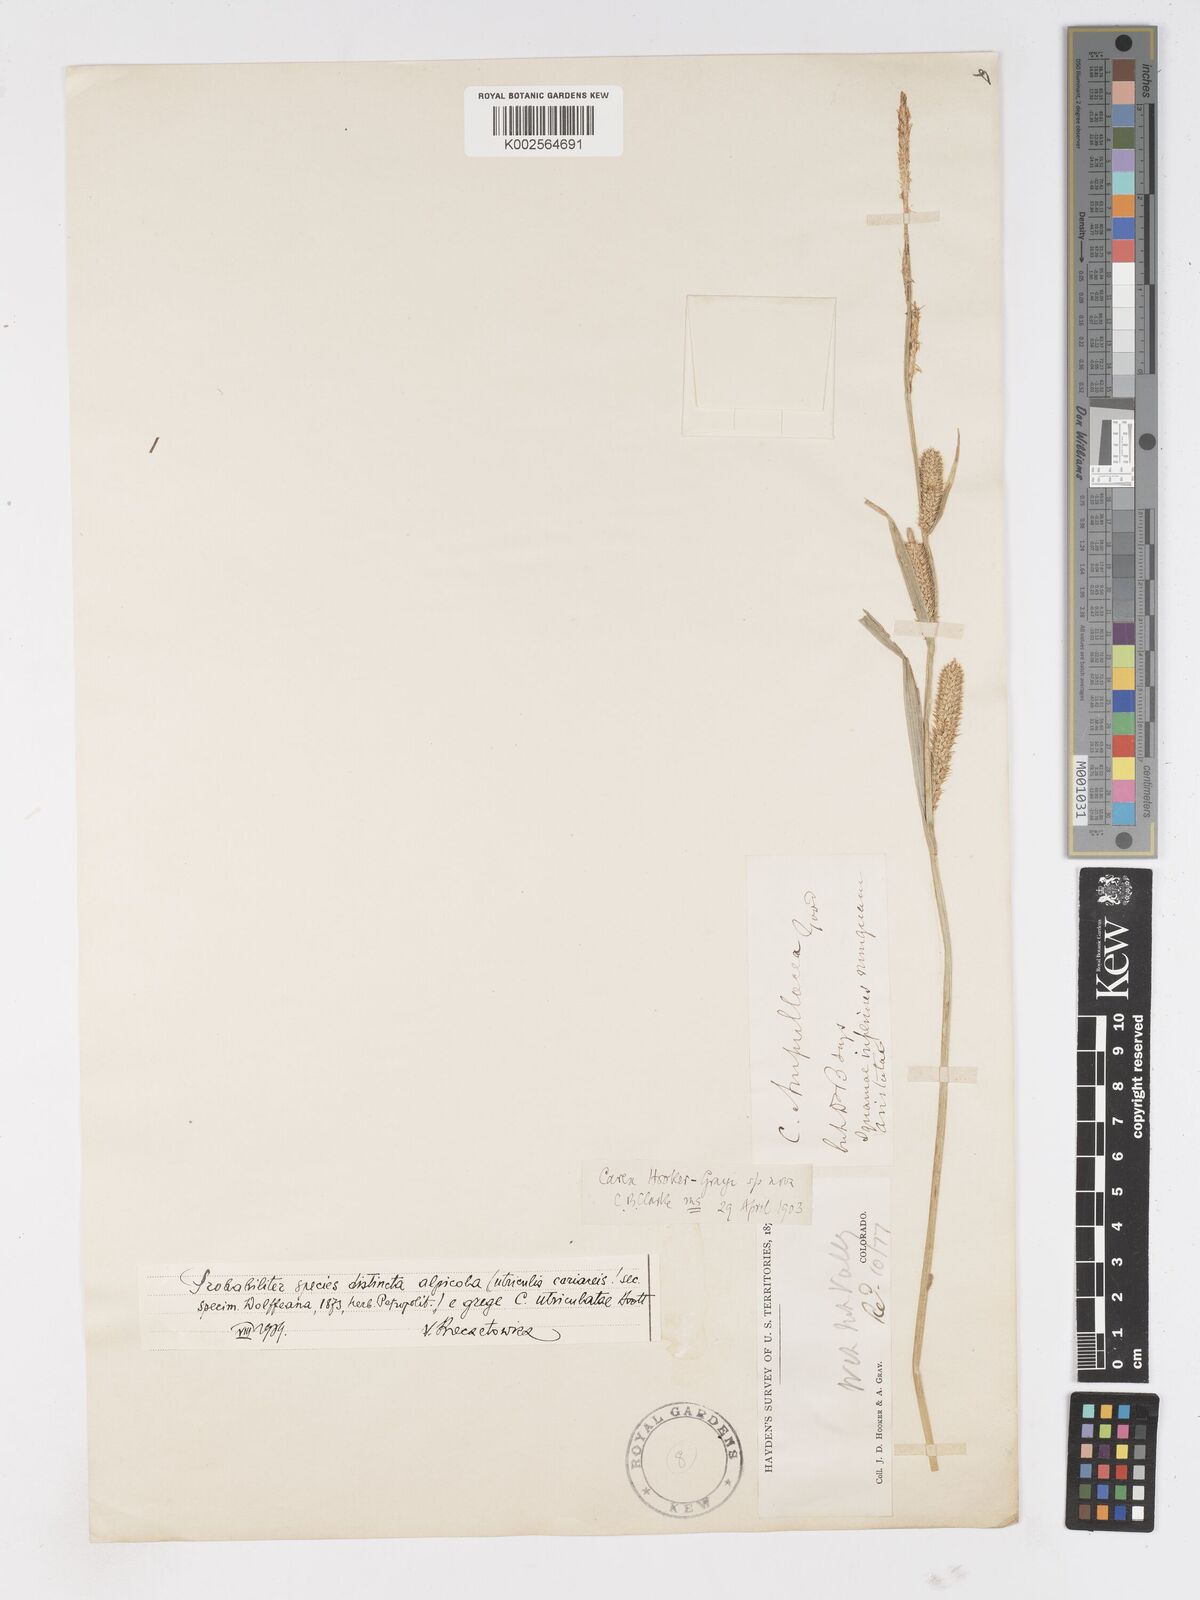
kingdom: Plantae
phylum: Tracheophyta
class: Liliopsida
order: Poales
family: Cyperaceae
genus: Carex
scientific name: Carex hooker-grayi
